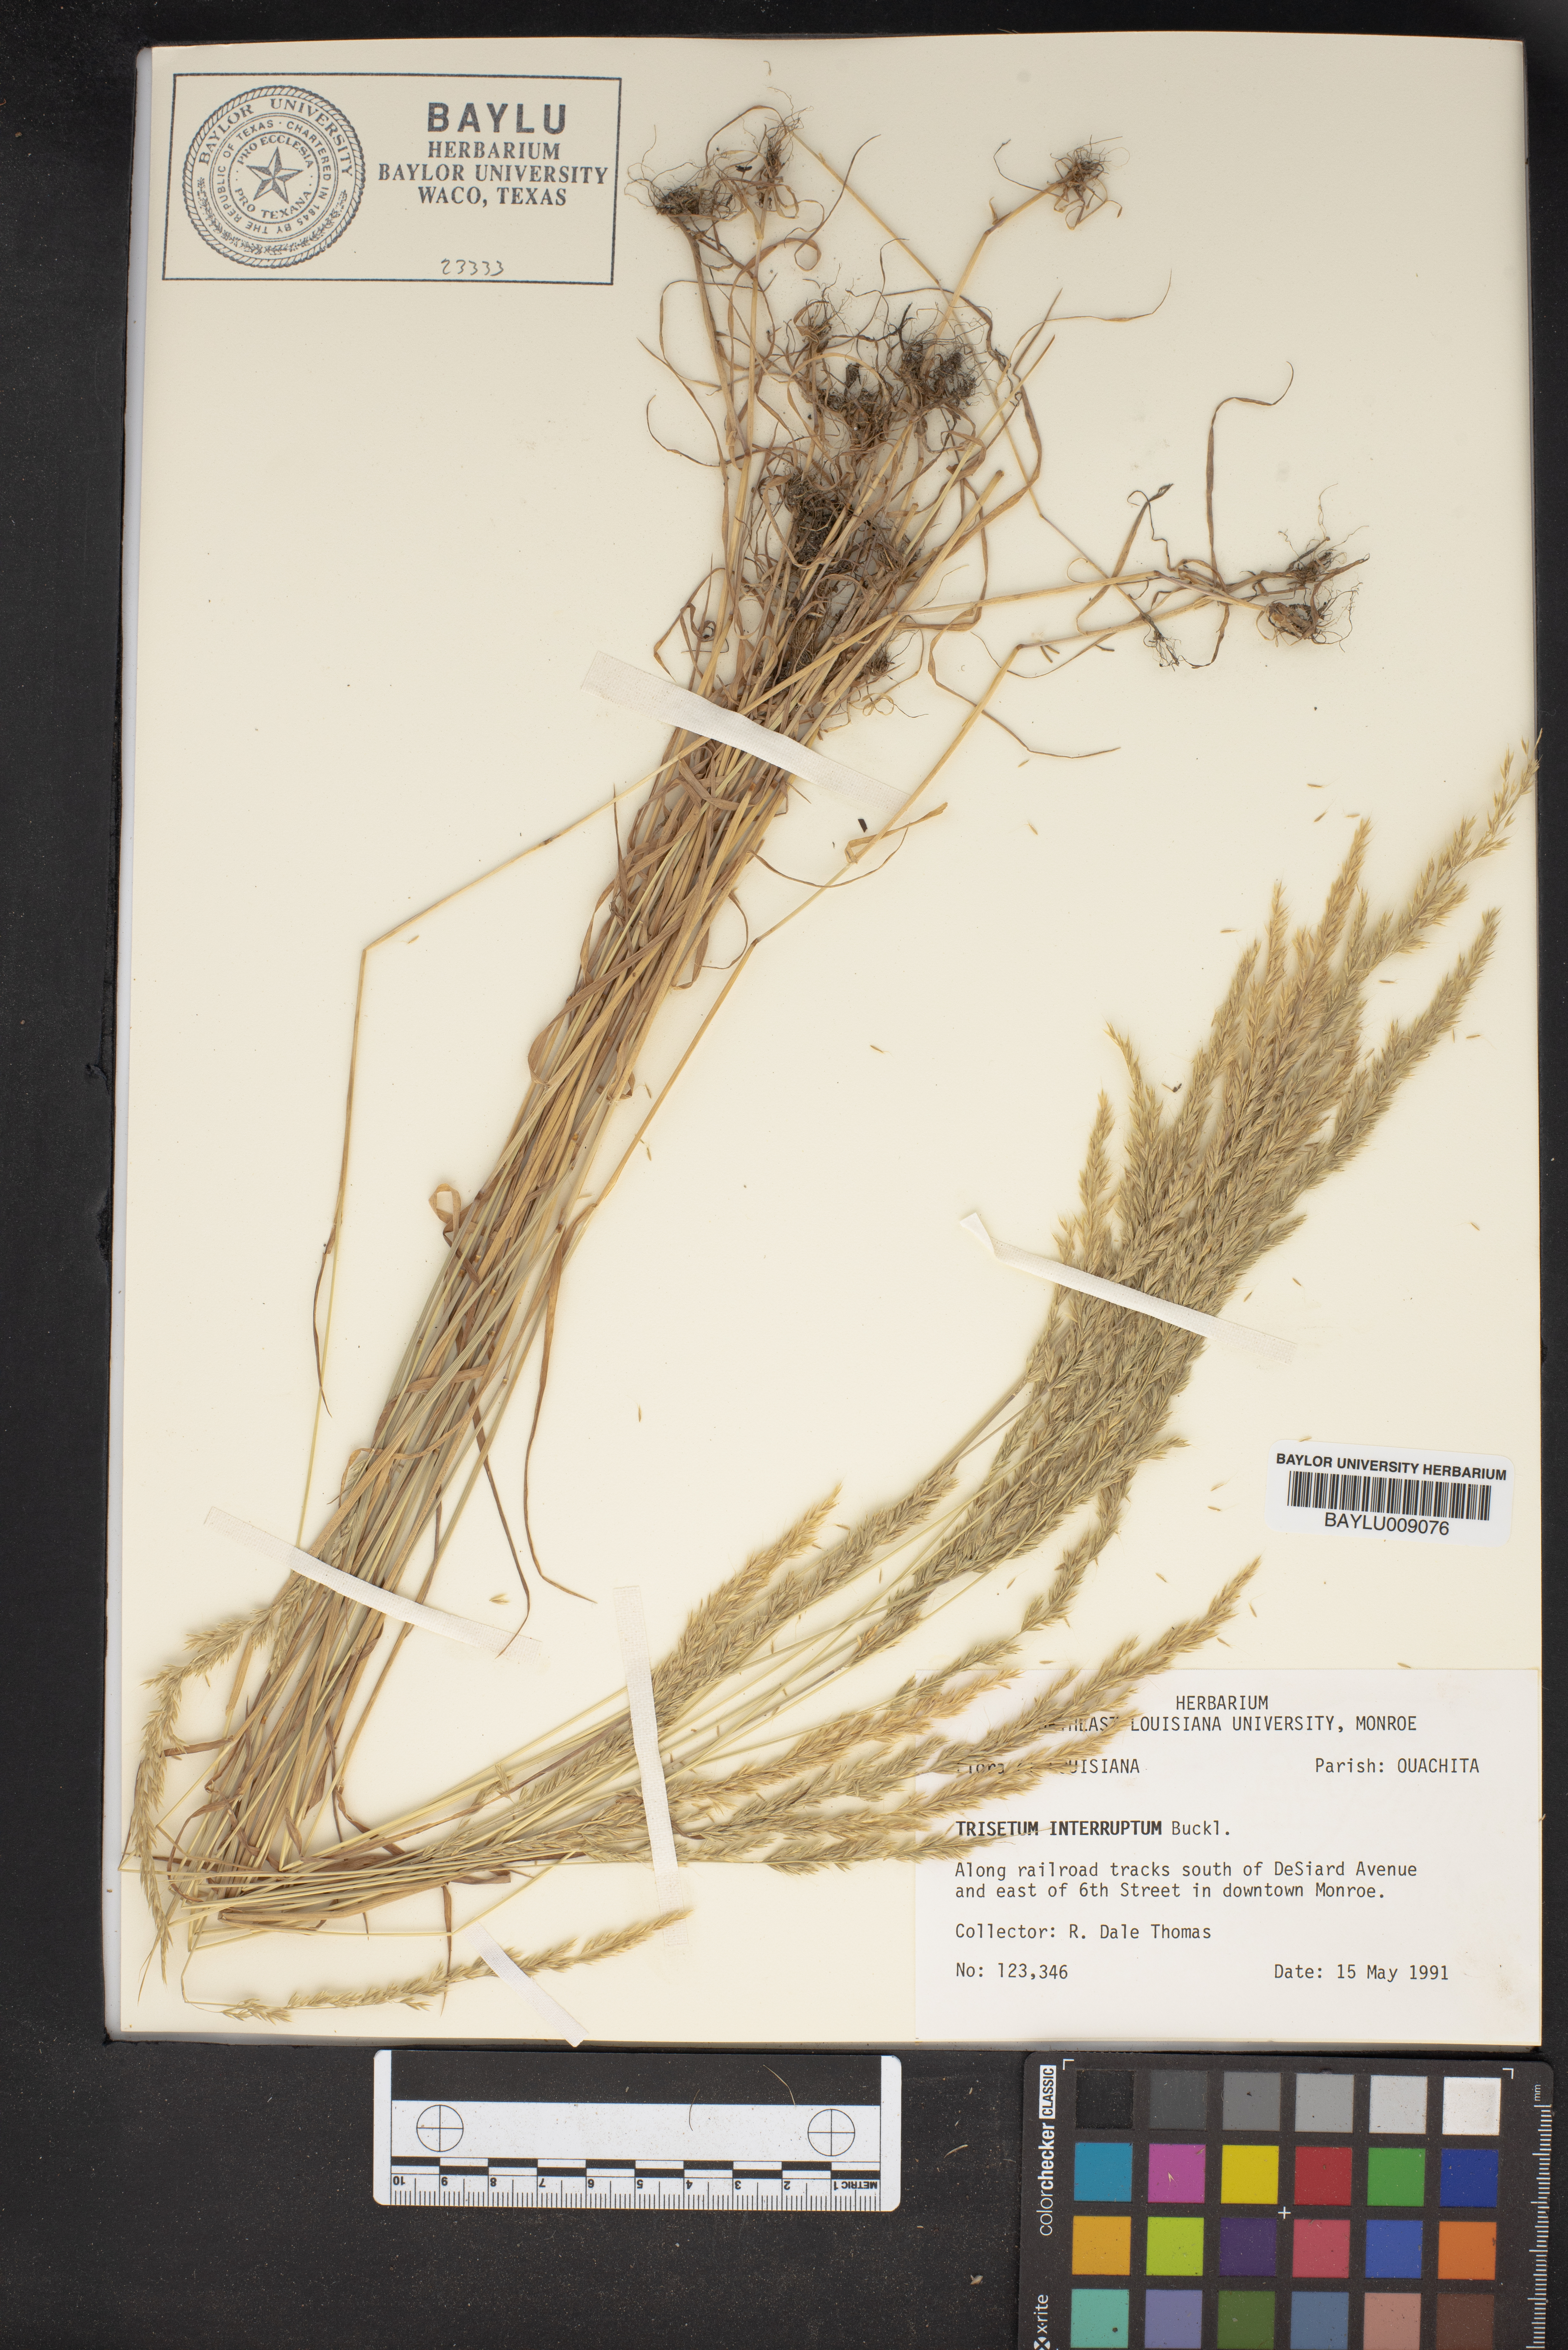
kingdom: Plantae
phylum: Tracheophyta
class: Liliopsida
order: Poales
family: Poaceae
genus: Sphenopholis
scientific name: Sphenopholis interrupta
